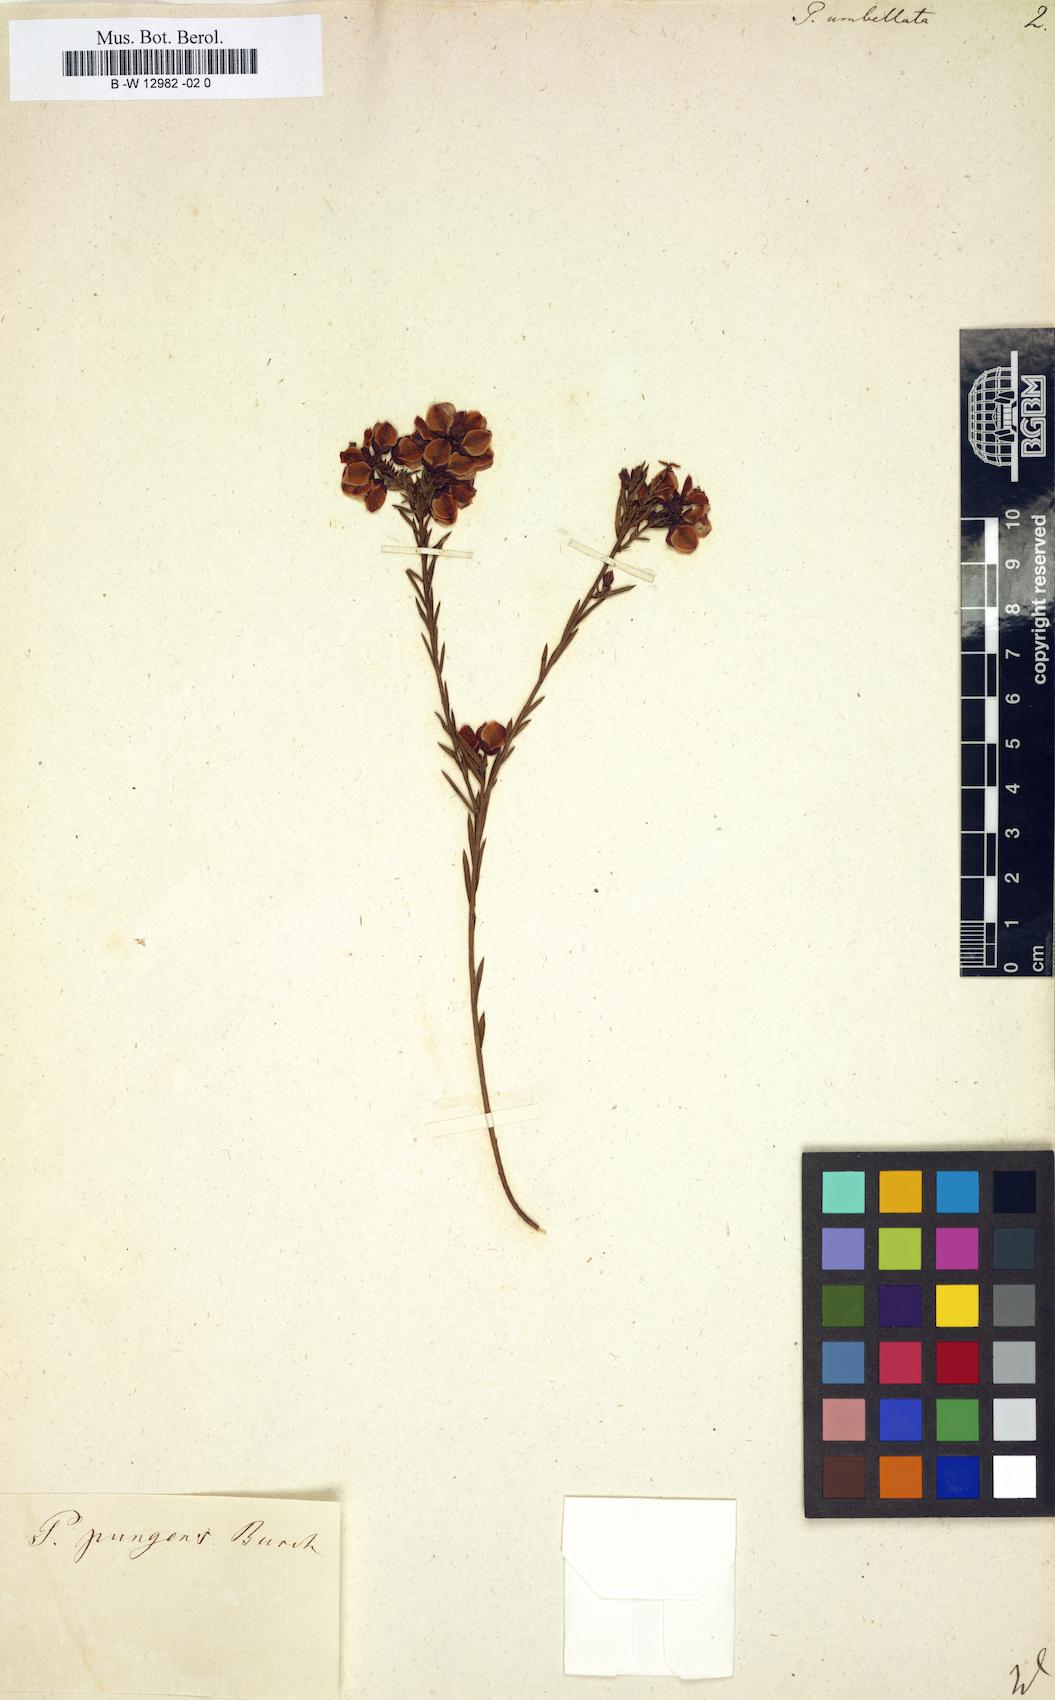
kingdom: Plantae
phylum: Tracheophyta
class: Magnoliopsida
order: Fabales
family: Polygalaceae
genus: Polygala
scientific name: Polygala umbellata
